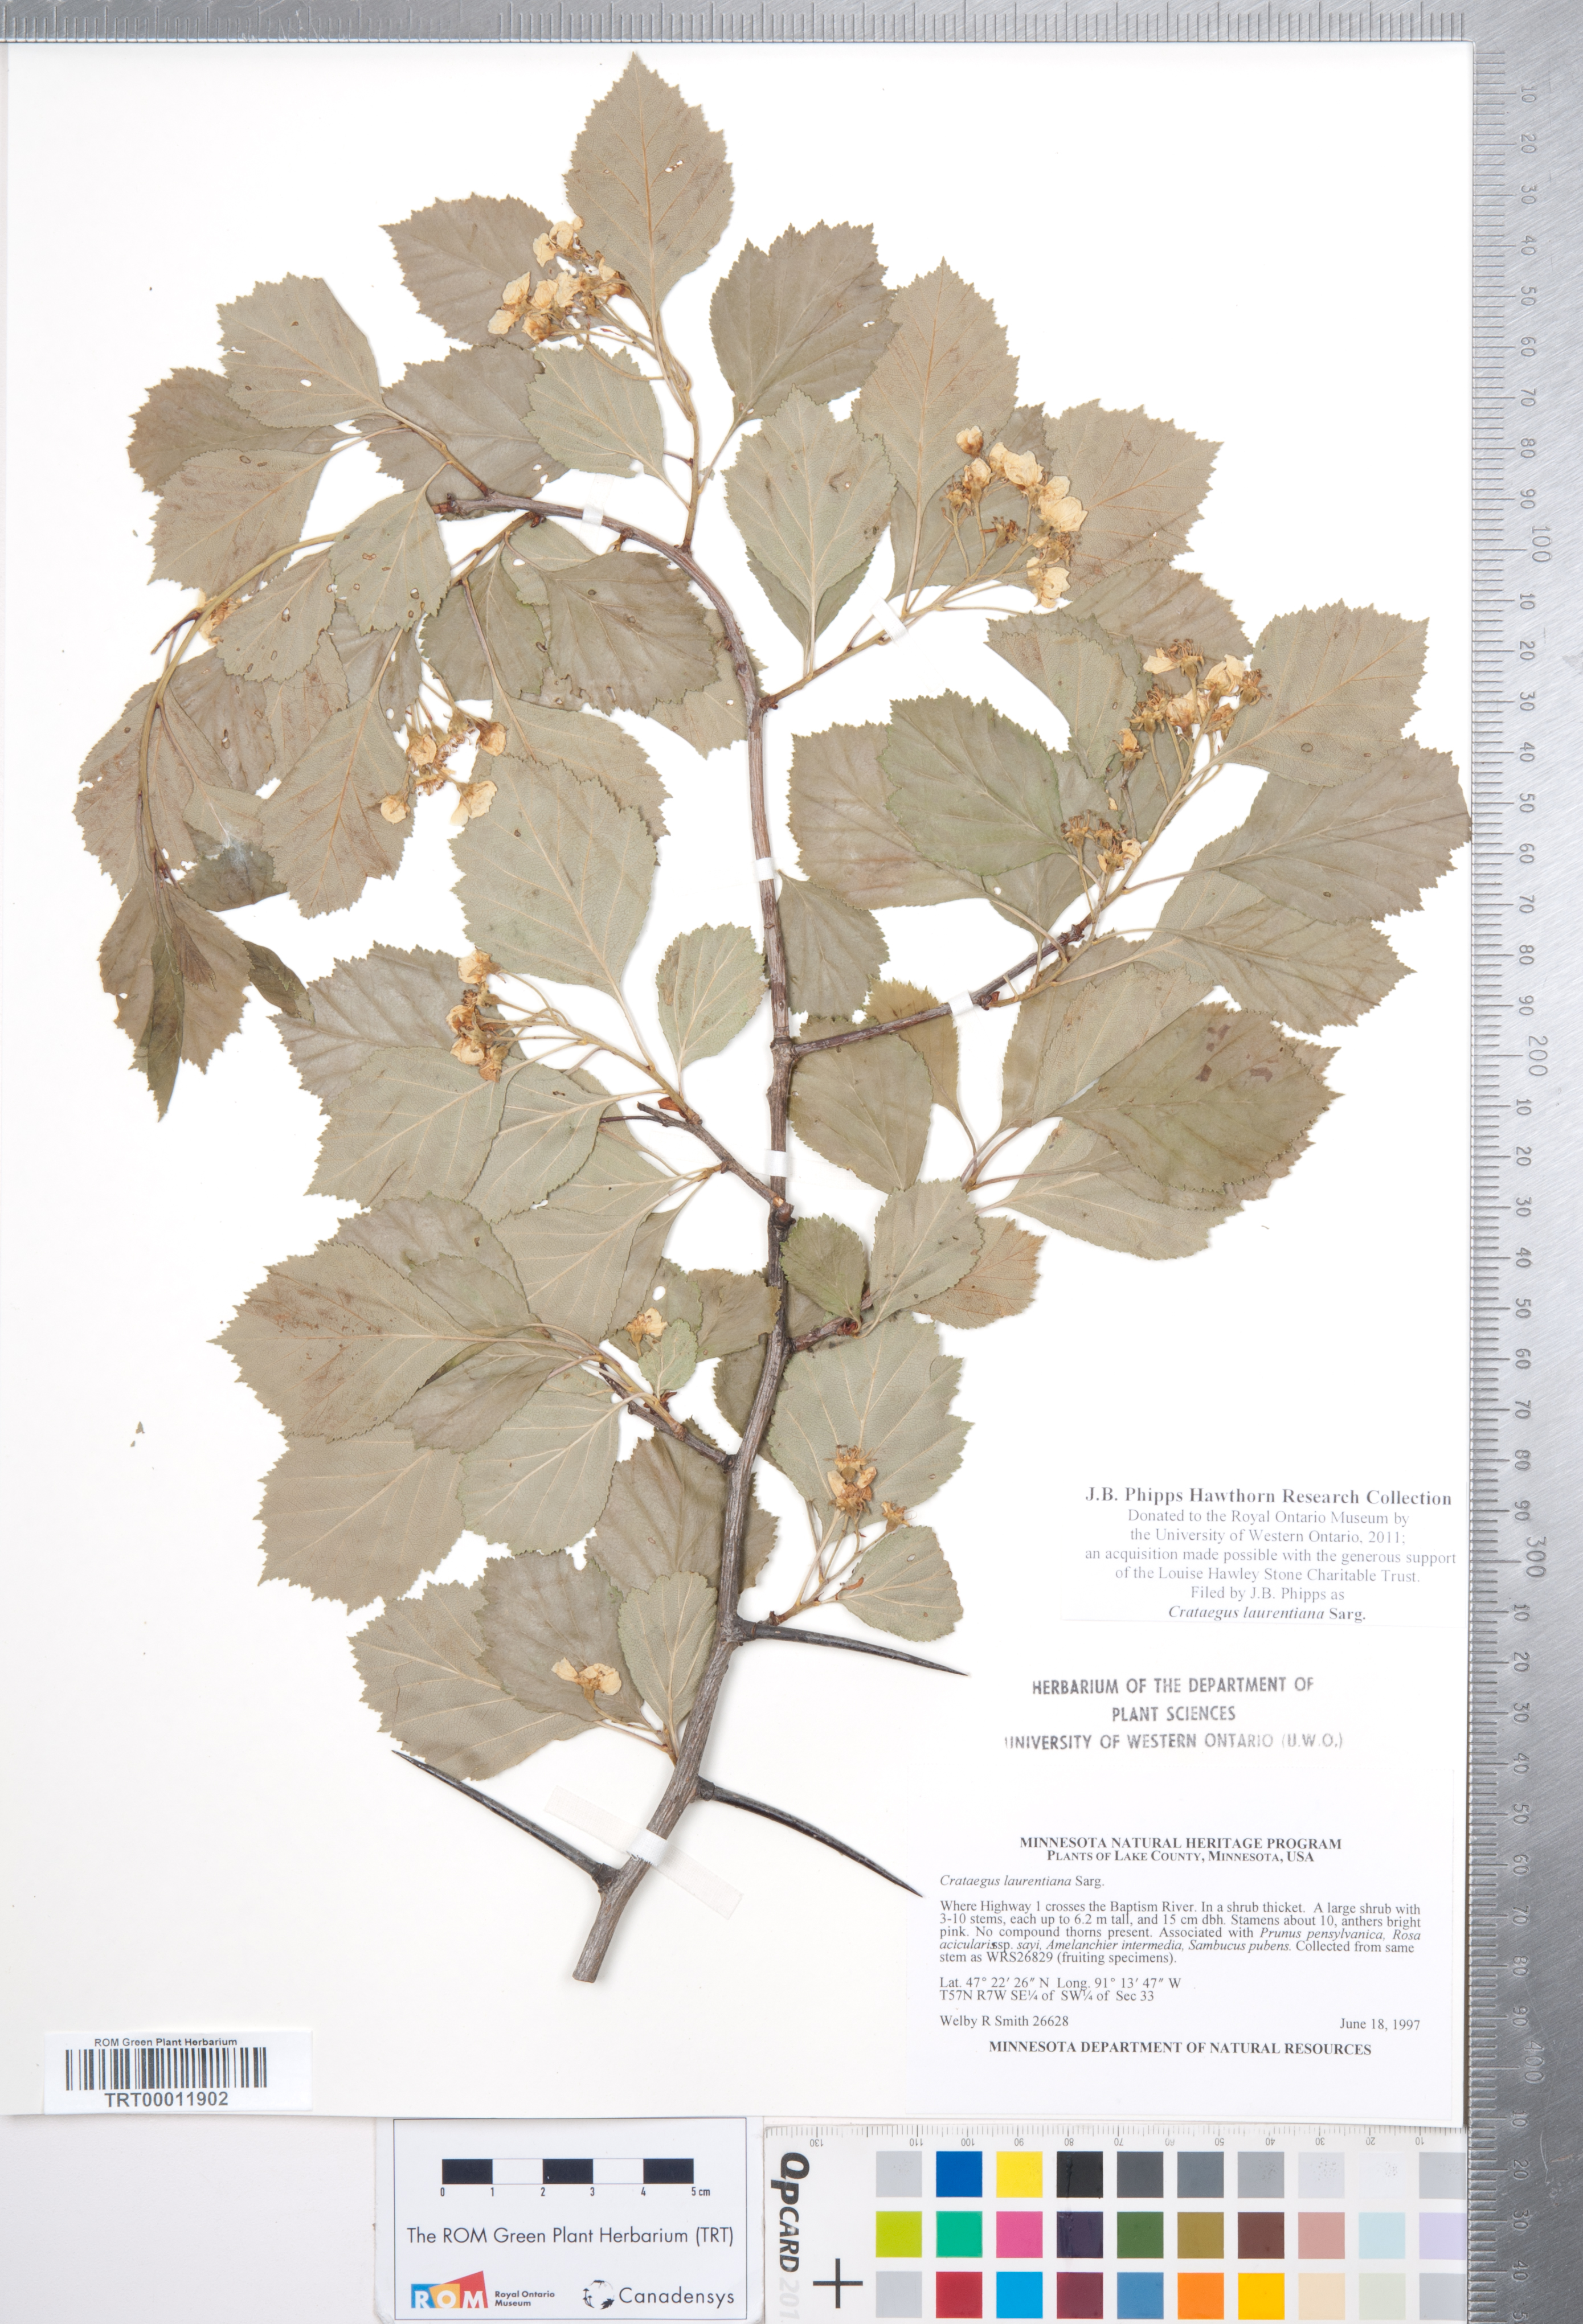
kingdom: Plantae
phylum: Tracheophyta
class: Magnoliopsida
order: Rosales
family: Rosaceae
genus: Crataegus
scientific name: Crataegus jonesiae
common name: Jones' hawthorn
